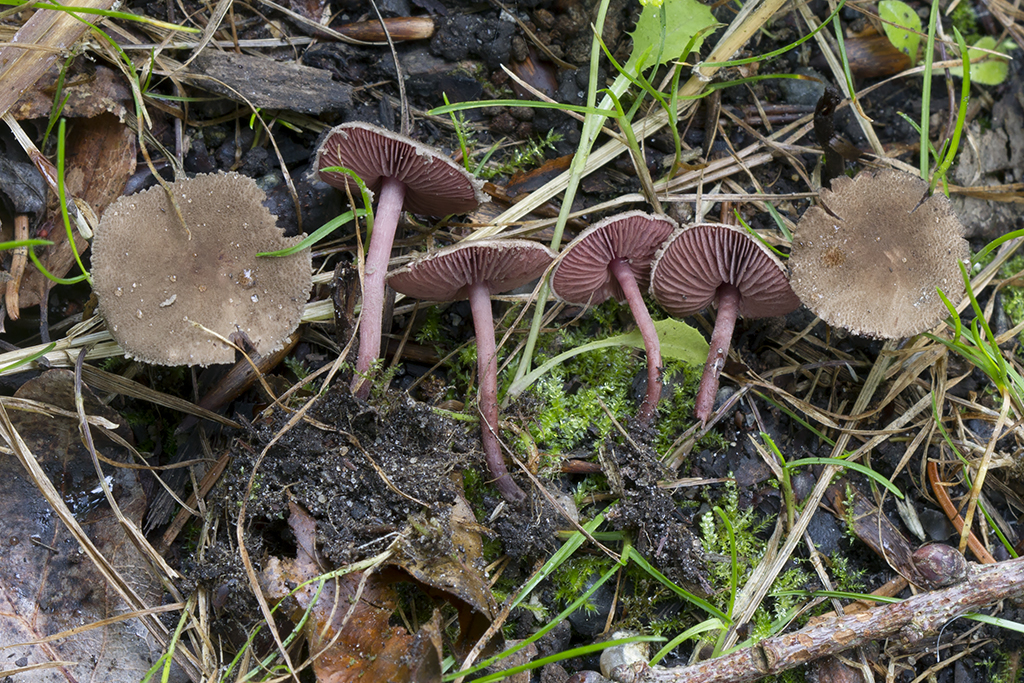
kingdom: Fungi
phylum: Basidiomycota
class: Agaricomycetes
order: Agaricales
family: Agaricaceae
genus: Melanophyllum
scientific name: Melanophyllum haematospermum
